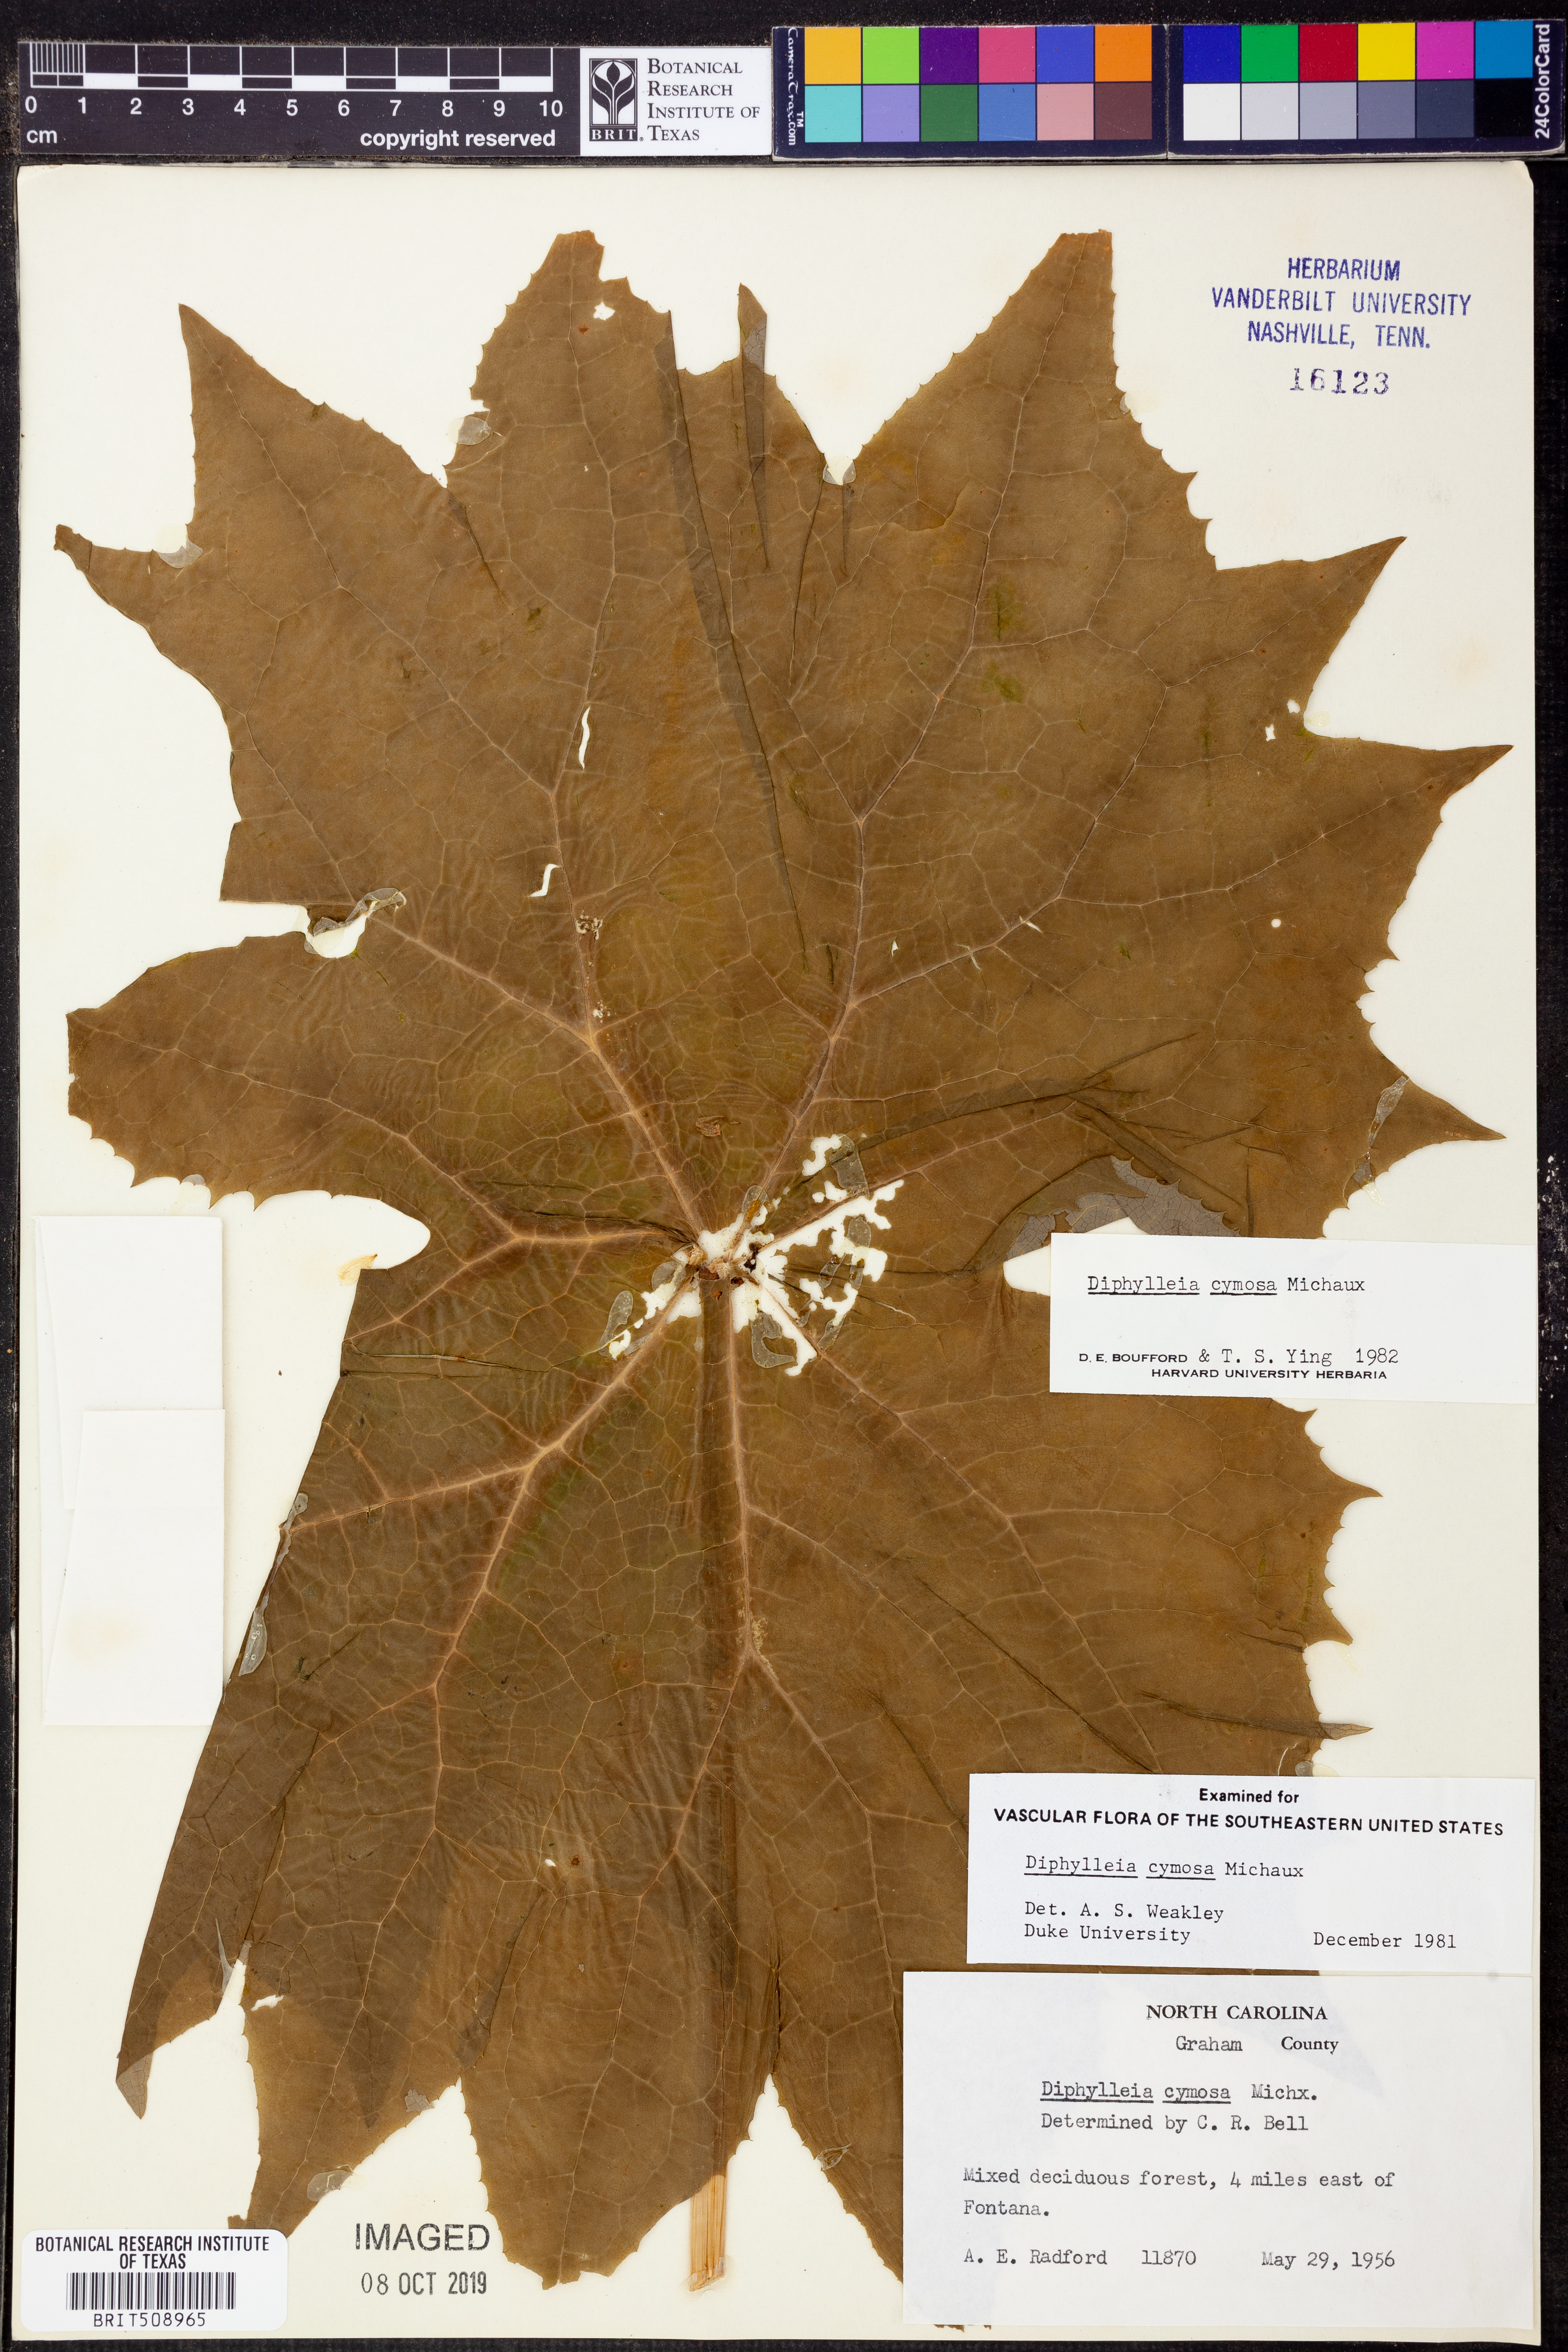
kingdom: Plantae
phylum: Tracheophyta
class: Magnoliopsida
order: Ranunculales
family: Berberidaceae
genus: Diphylleia
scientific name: Diphylleia cymosa
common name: Umbrella-leaf
